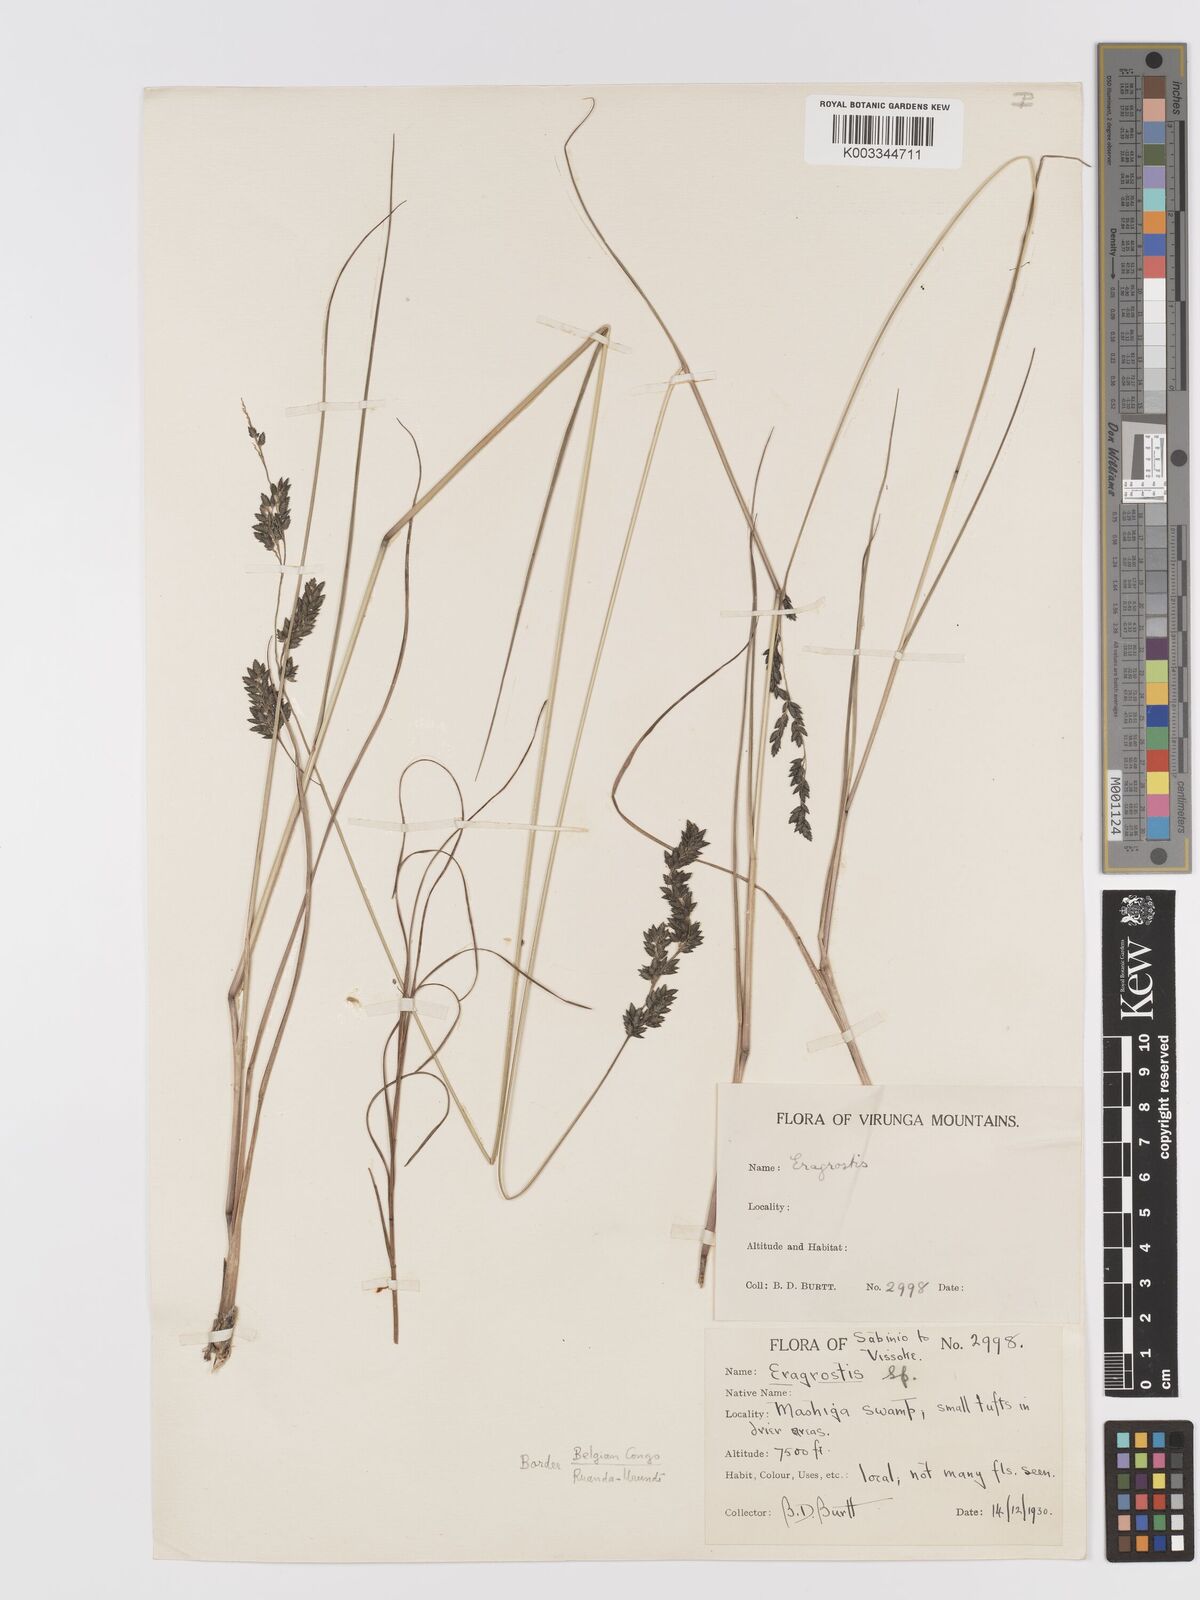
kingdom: Plantae
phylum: Tracheophyta
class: Liliopsida
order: Poales
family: Poaceae
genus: Eragrostis
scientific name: Eragrostis botryodes
